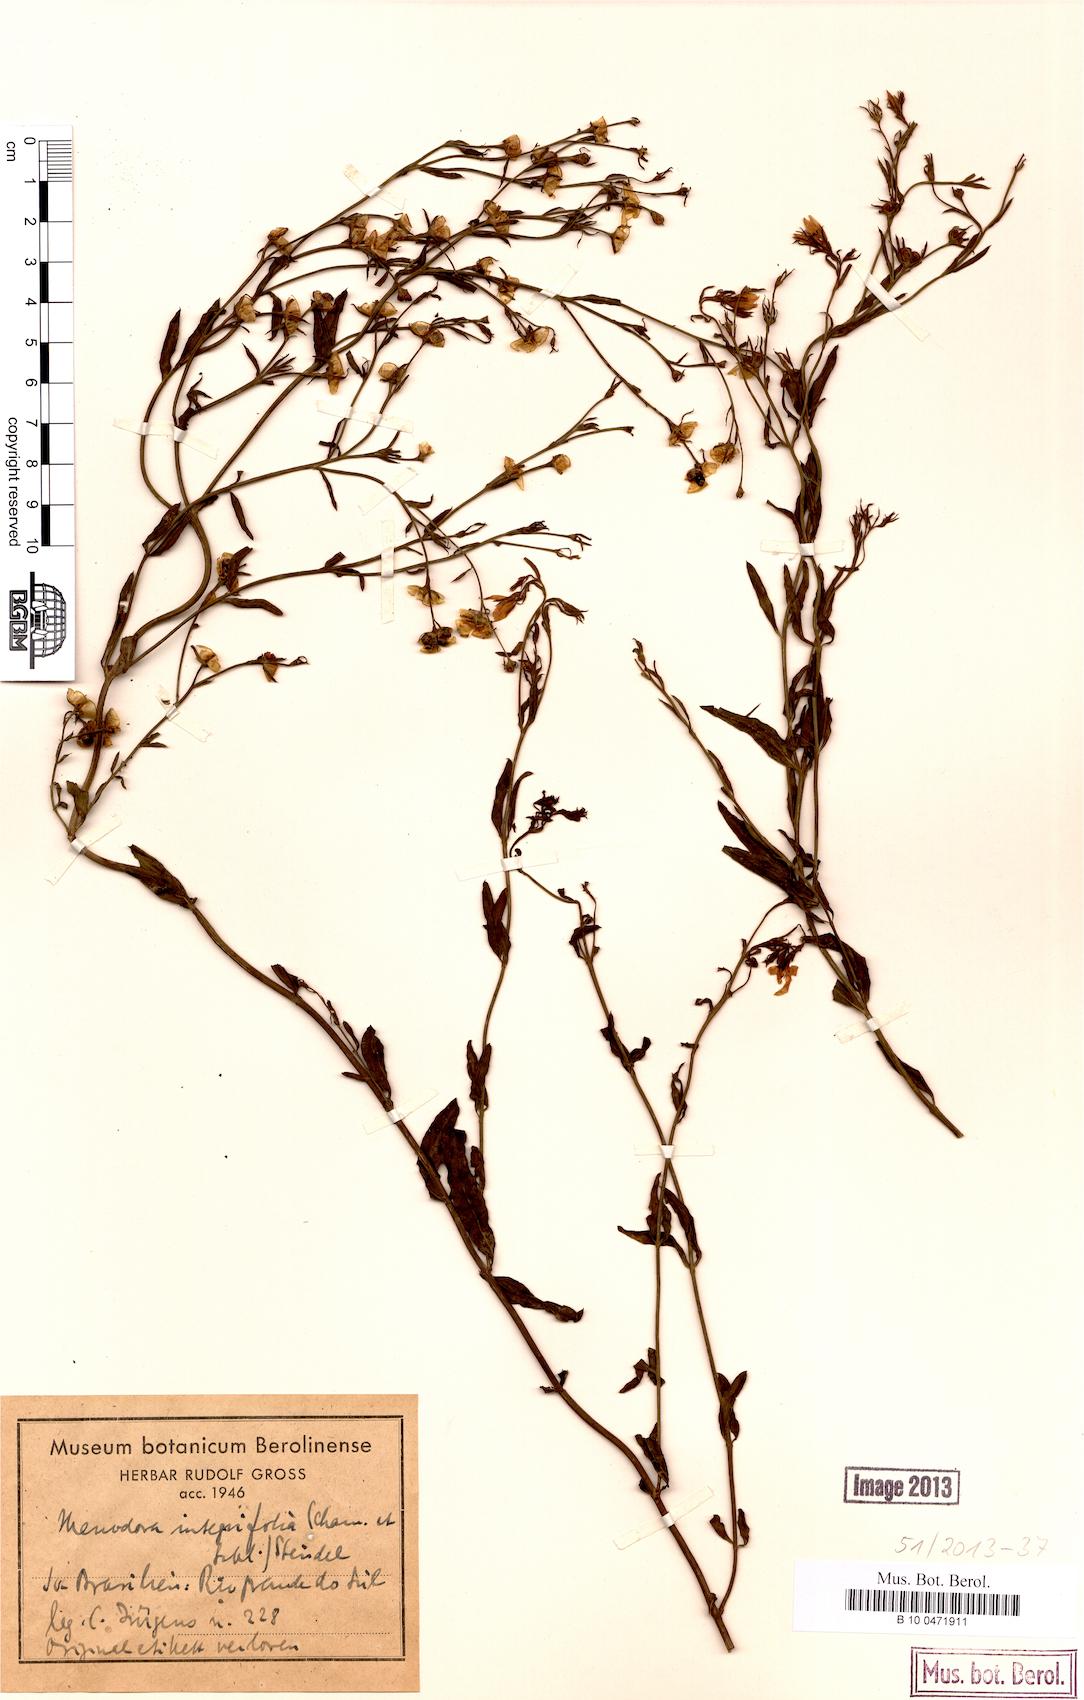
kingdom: Plantae
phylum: Tracheophyta
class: Magnoliopsida
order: Lamiales
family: Oleaceae
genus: Menodora
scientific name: Menodora integrifolia
